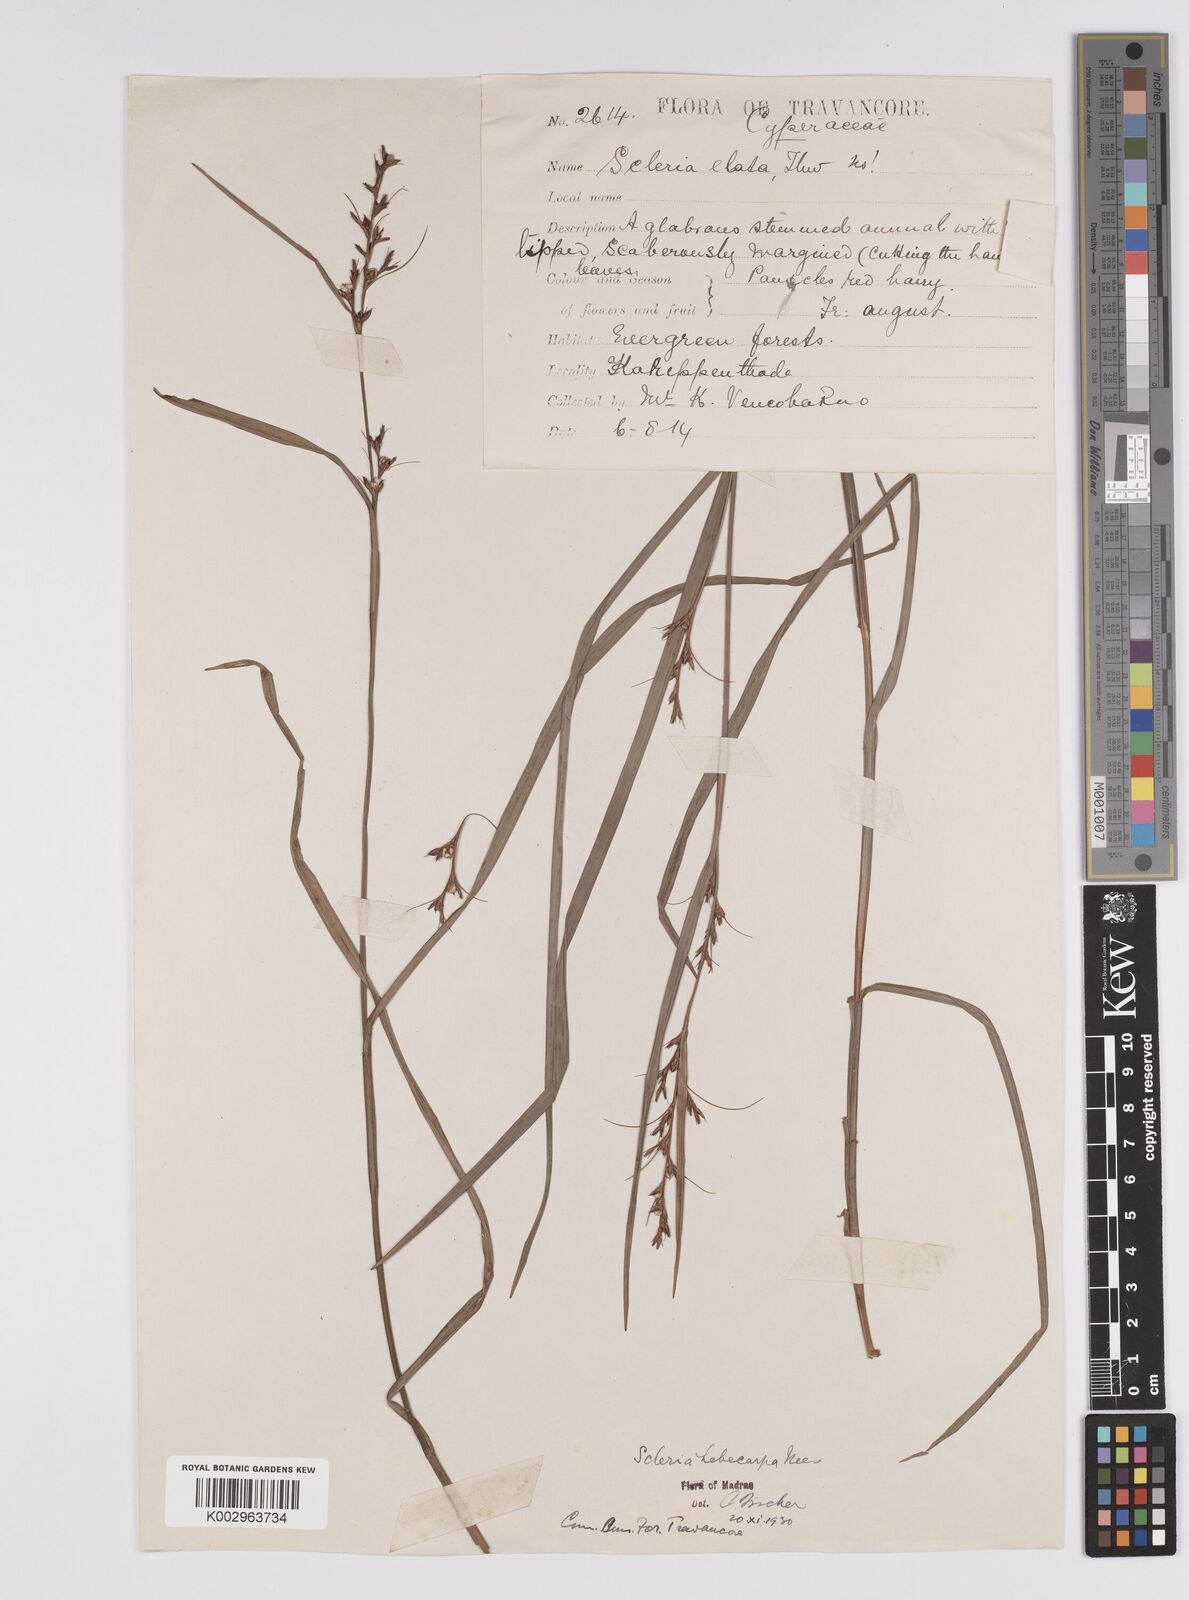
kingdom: Plantae
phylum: Tracheophyta
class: Liliopsida
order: Poales
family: Cyperaceae
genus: Scleria
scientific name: Scleria levis
